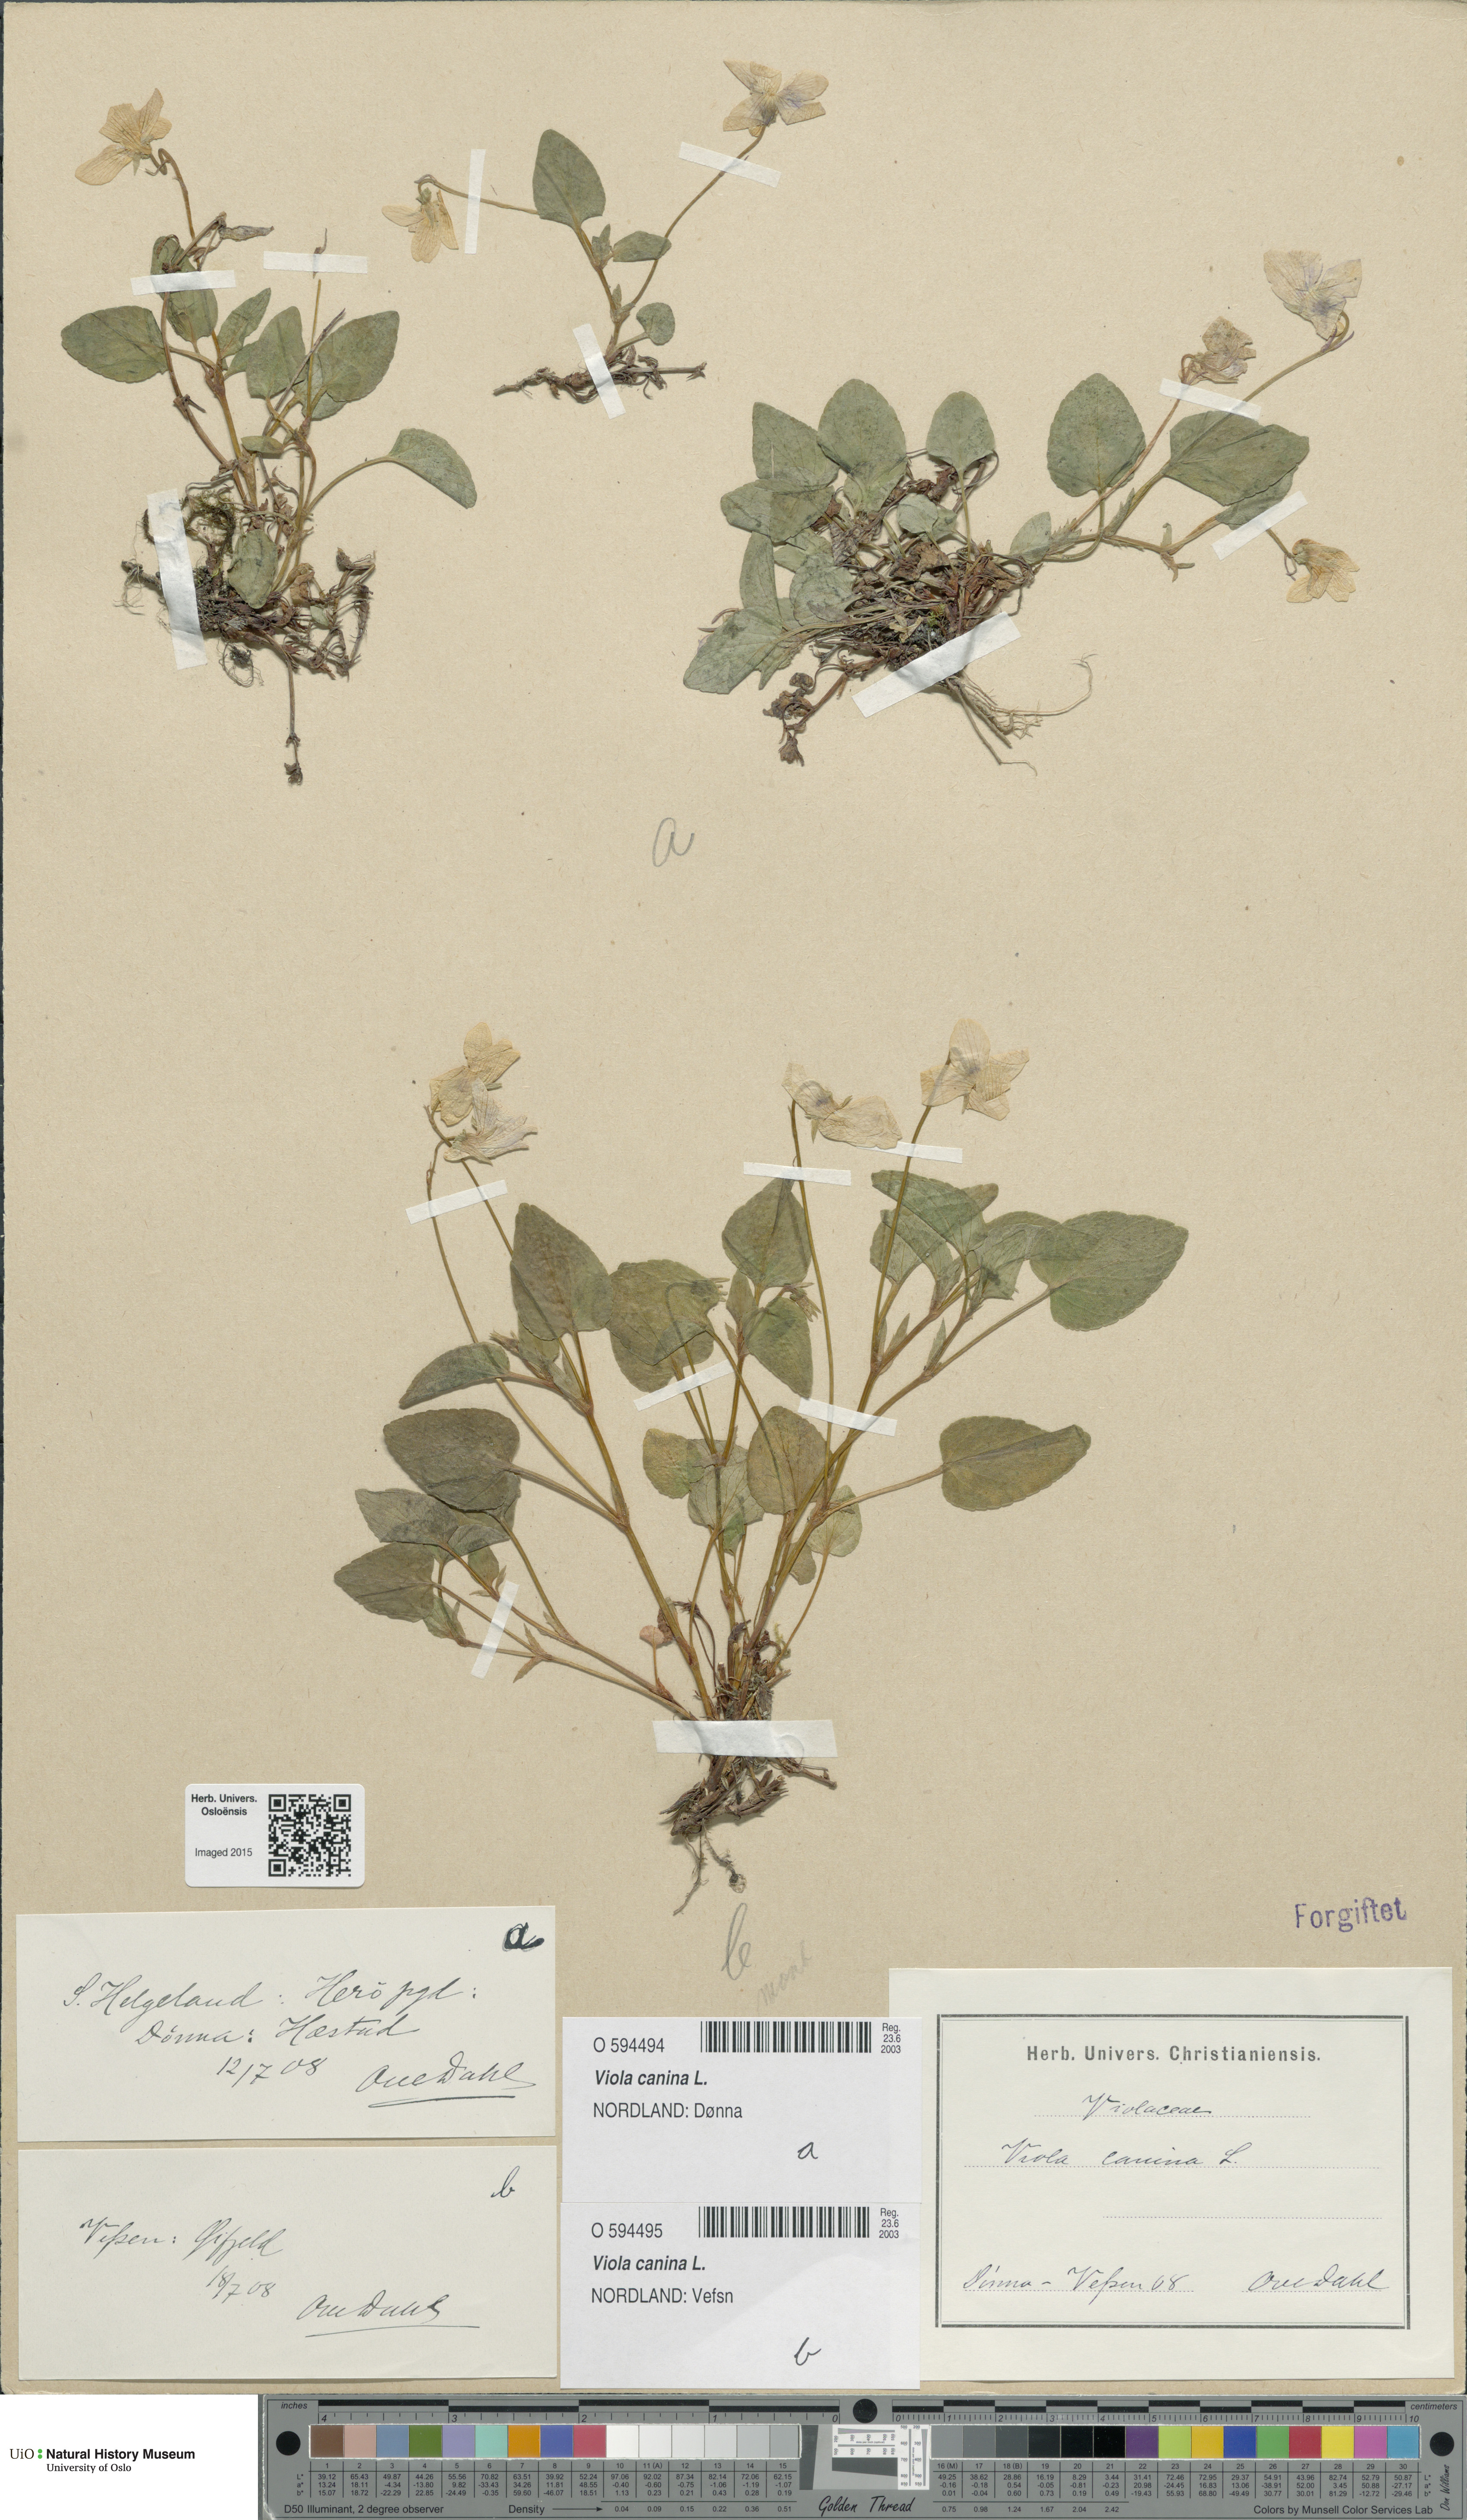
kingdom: Plantae
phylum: Tracheophyta
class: Magnoliopsida
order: Malpighiales
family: Violaceae
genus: Viola
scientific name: Viola canina
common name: Heath dog-violet
